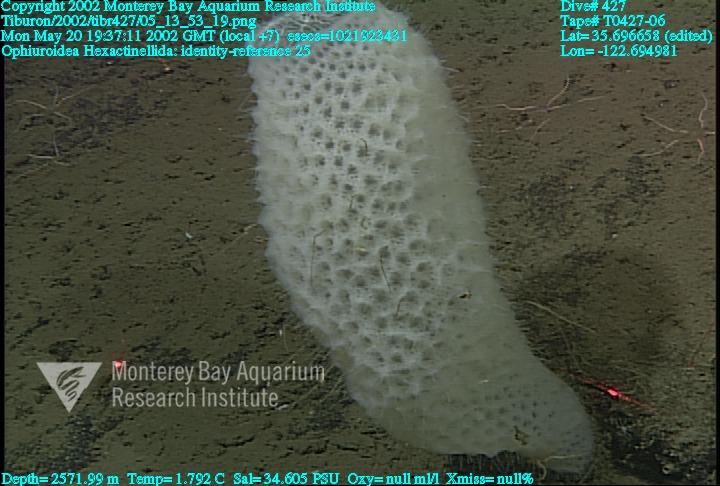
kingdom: Animalia
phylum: Porifera
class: Hexactinellida
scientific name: Hexactinellida
